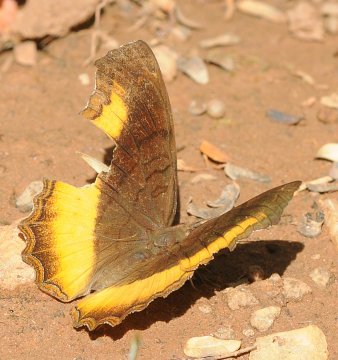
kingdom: Animalia
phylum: Arthropoda
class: Insecta
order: Lepidoptera
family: Nymphalidae
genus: Eurytela
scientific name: Eurytela dryope
